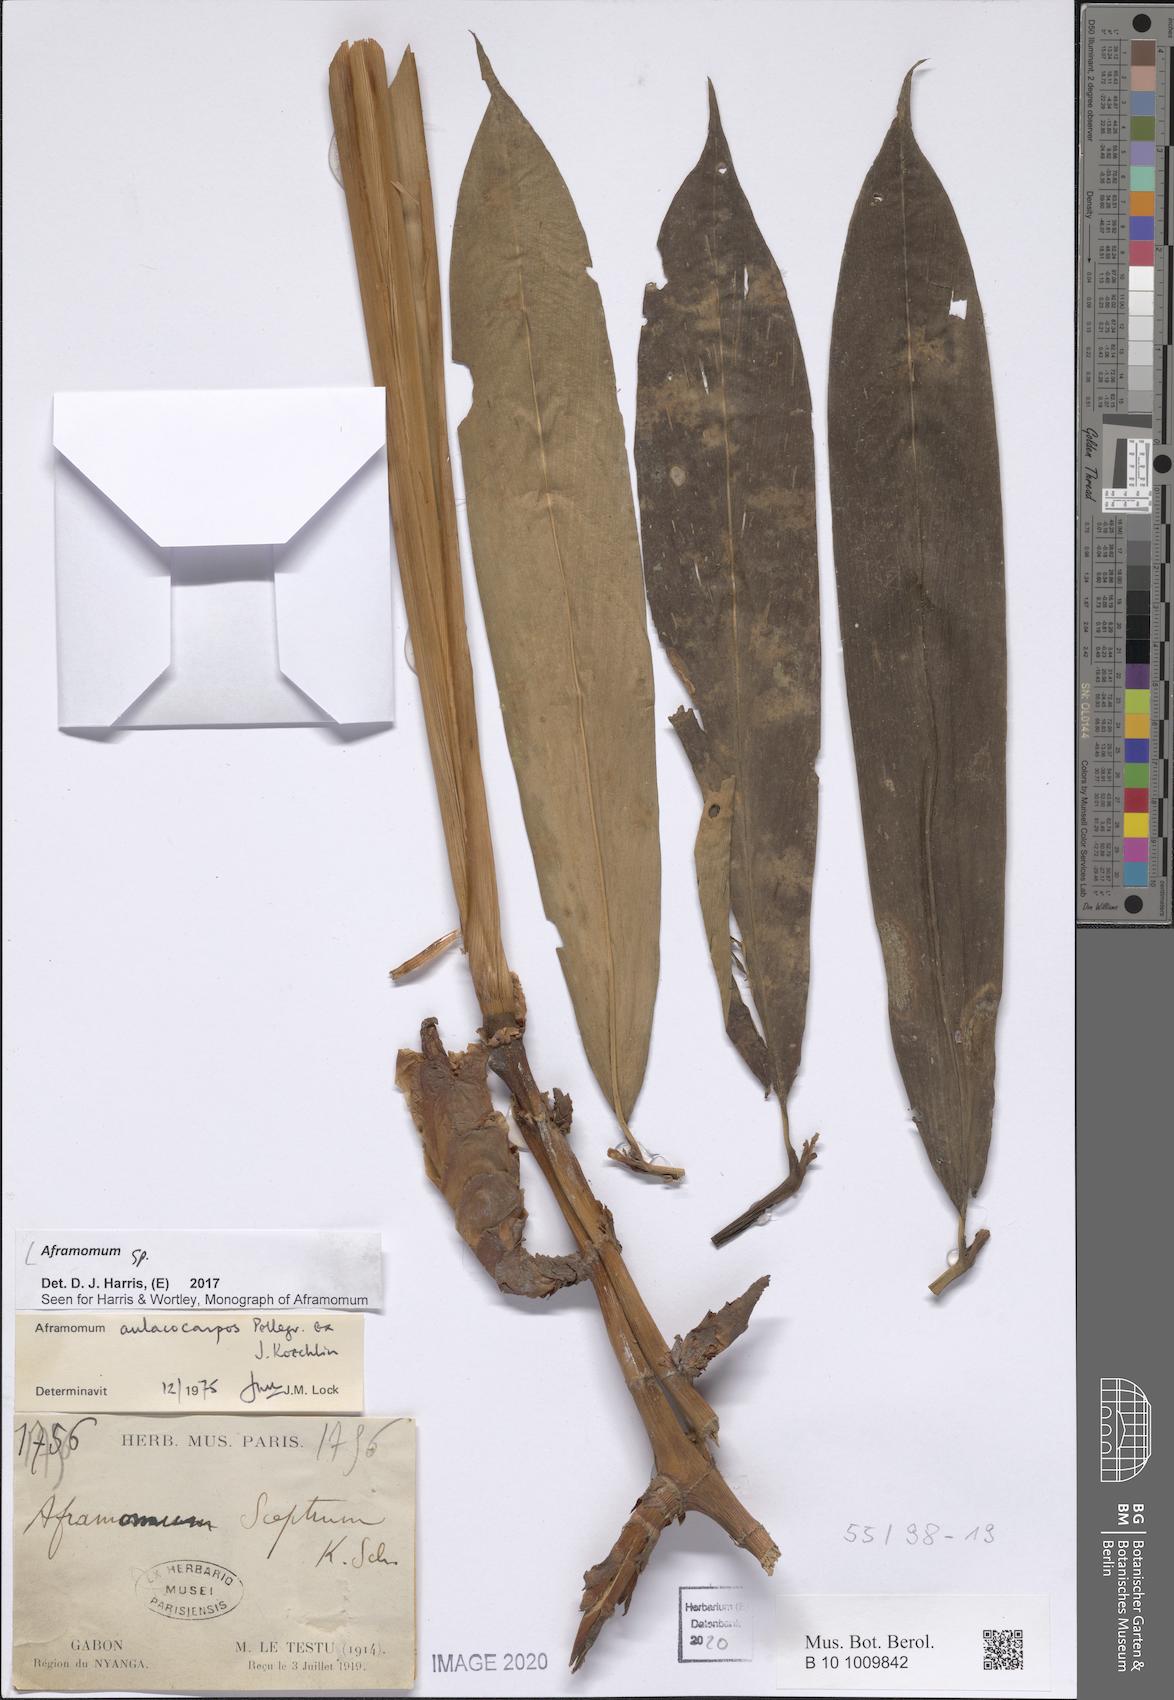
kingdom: Plantae
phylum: Tracheophyta
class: Liliopsida
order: Zingiberales
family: Zingiberaceae
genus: Aframomum
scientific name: Aframomum
